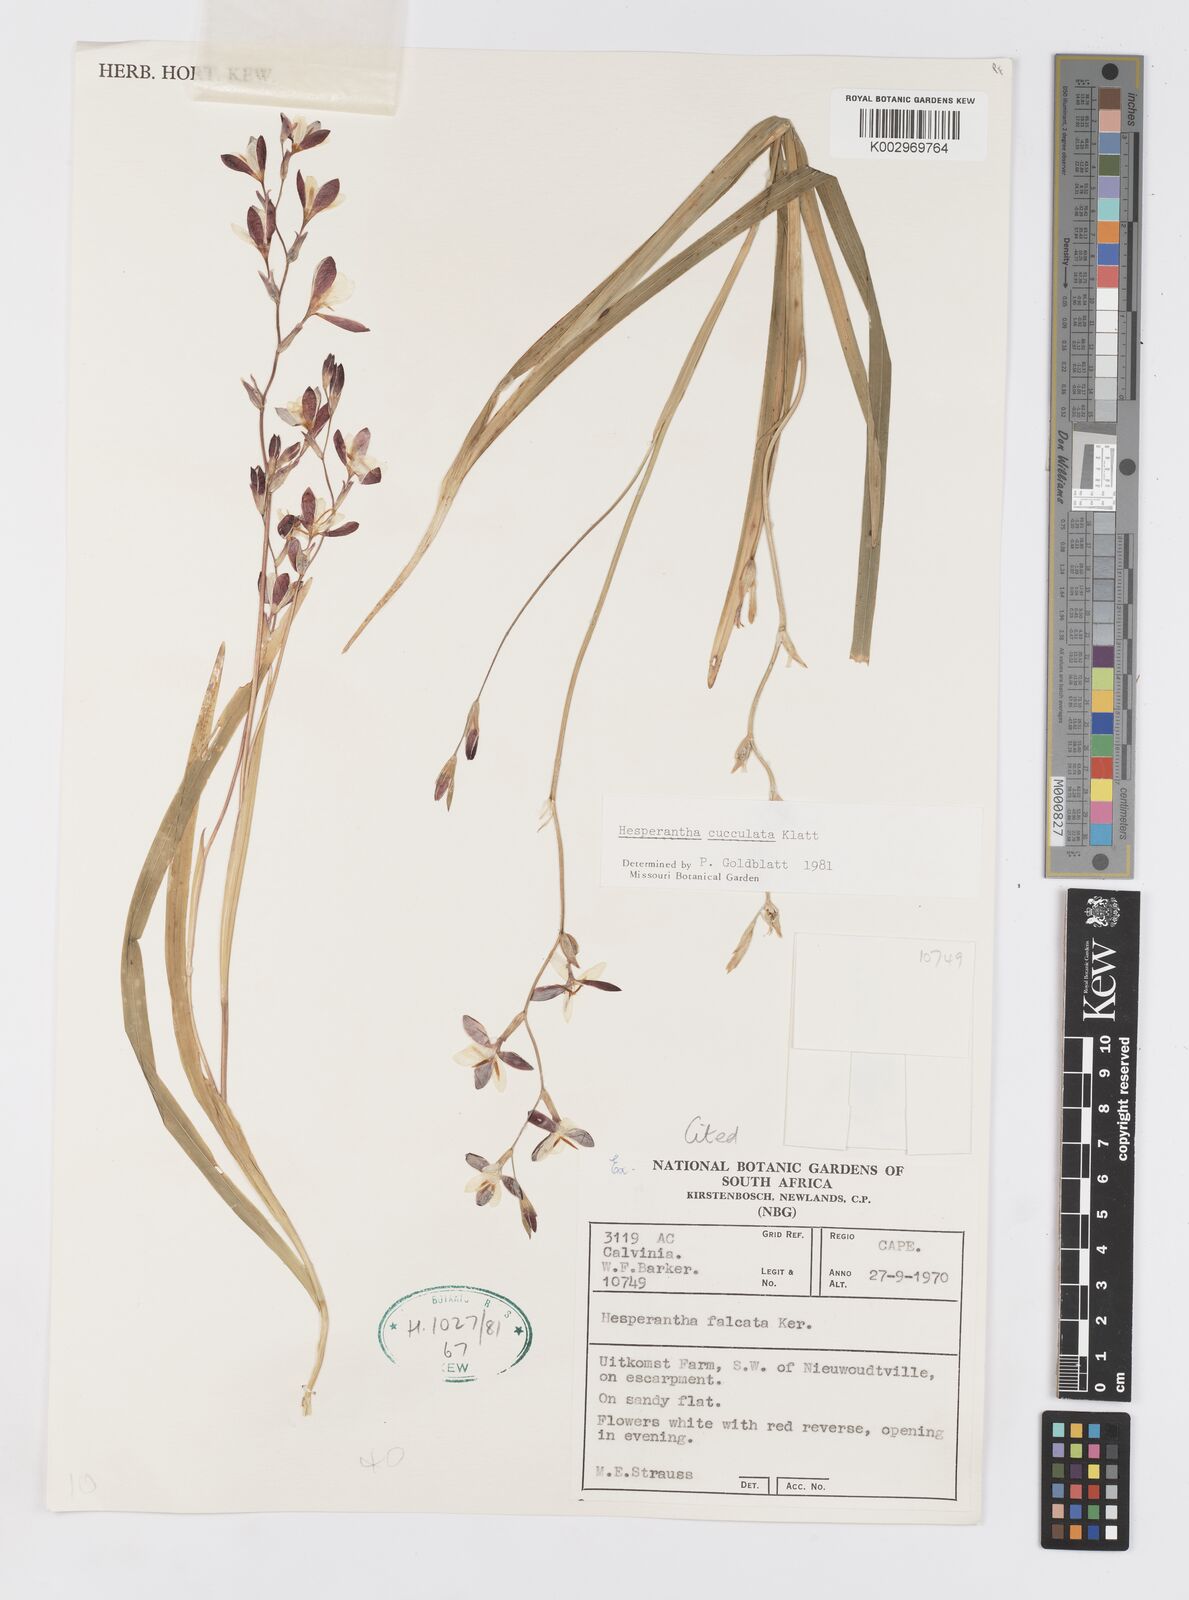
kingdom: Plantae
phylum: Tracheophyta
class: Liliopsida
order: Asparagales
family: Iridaceae
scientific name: Iridaceae
